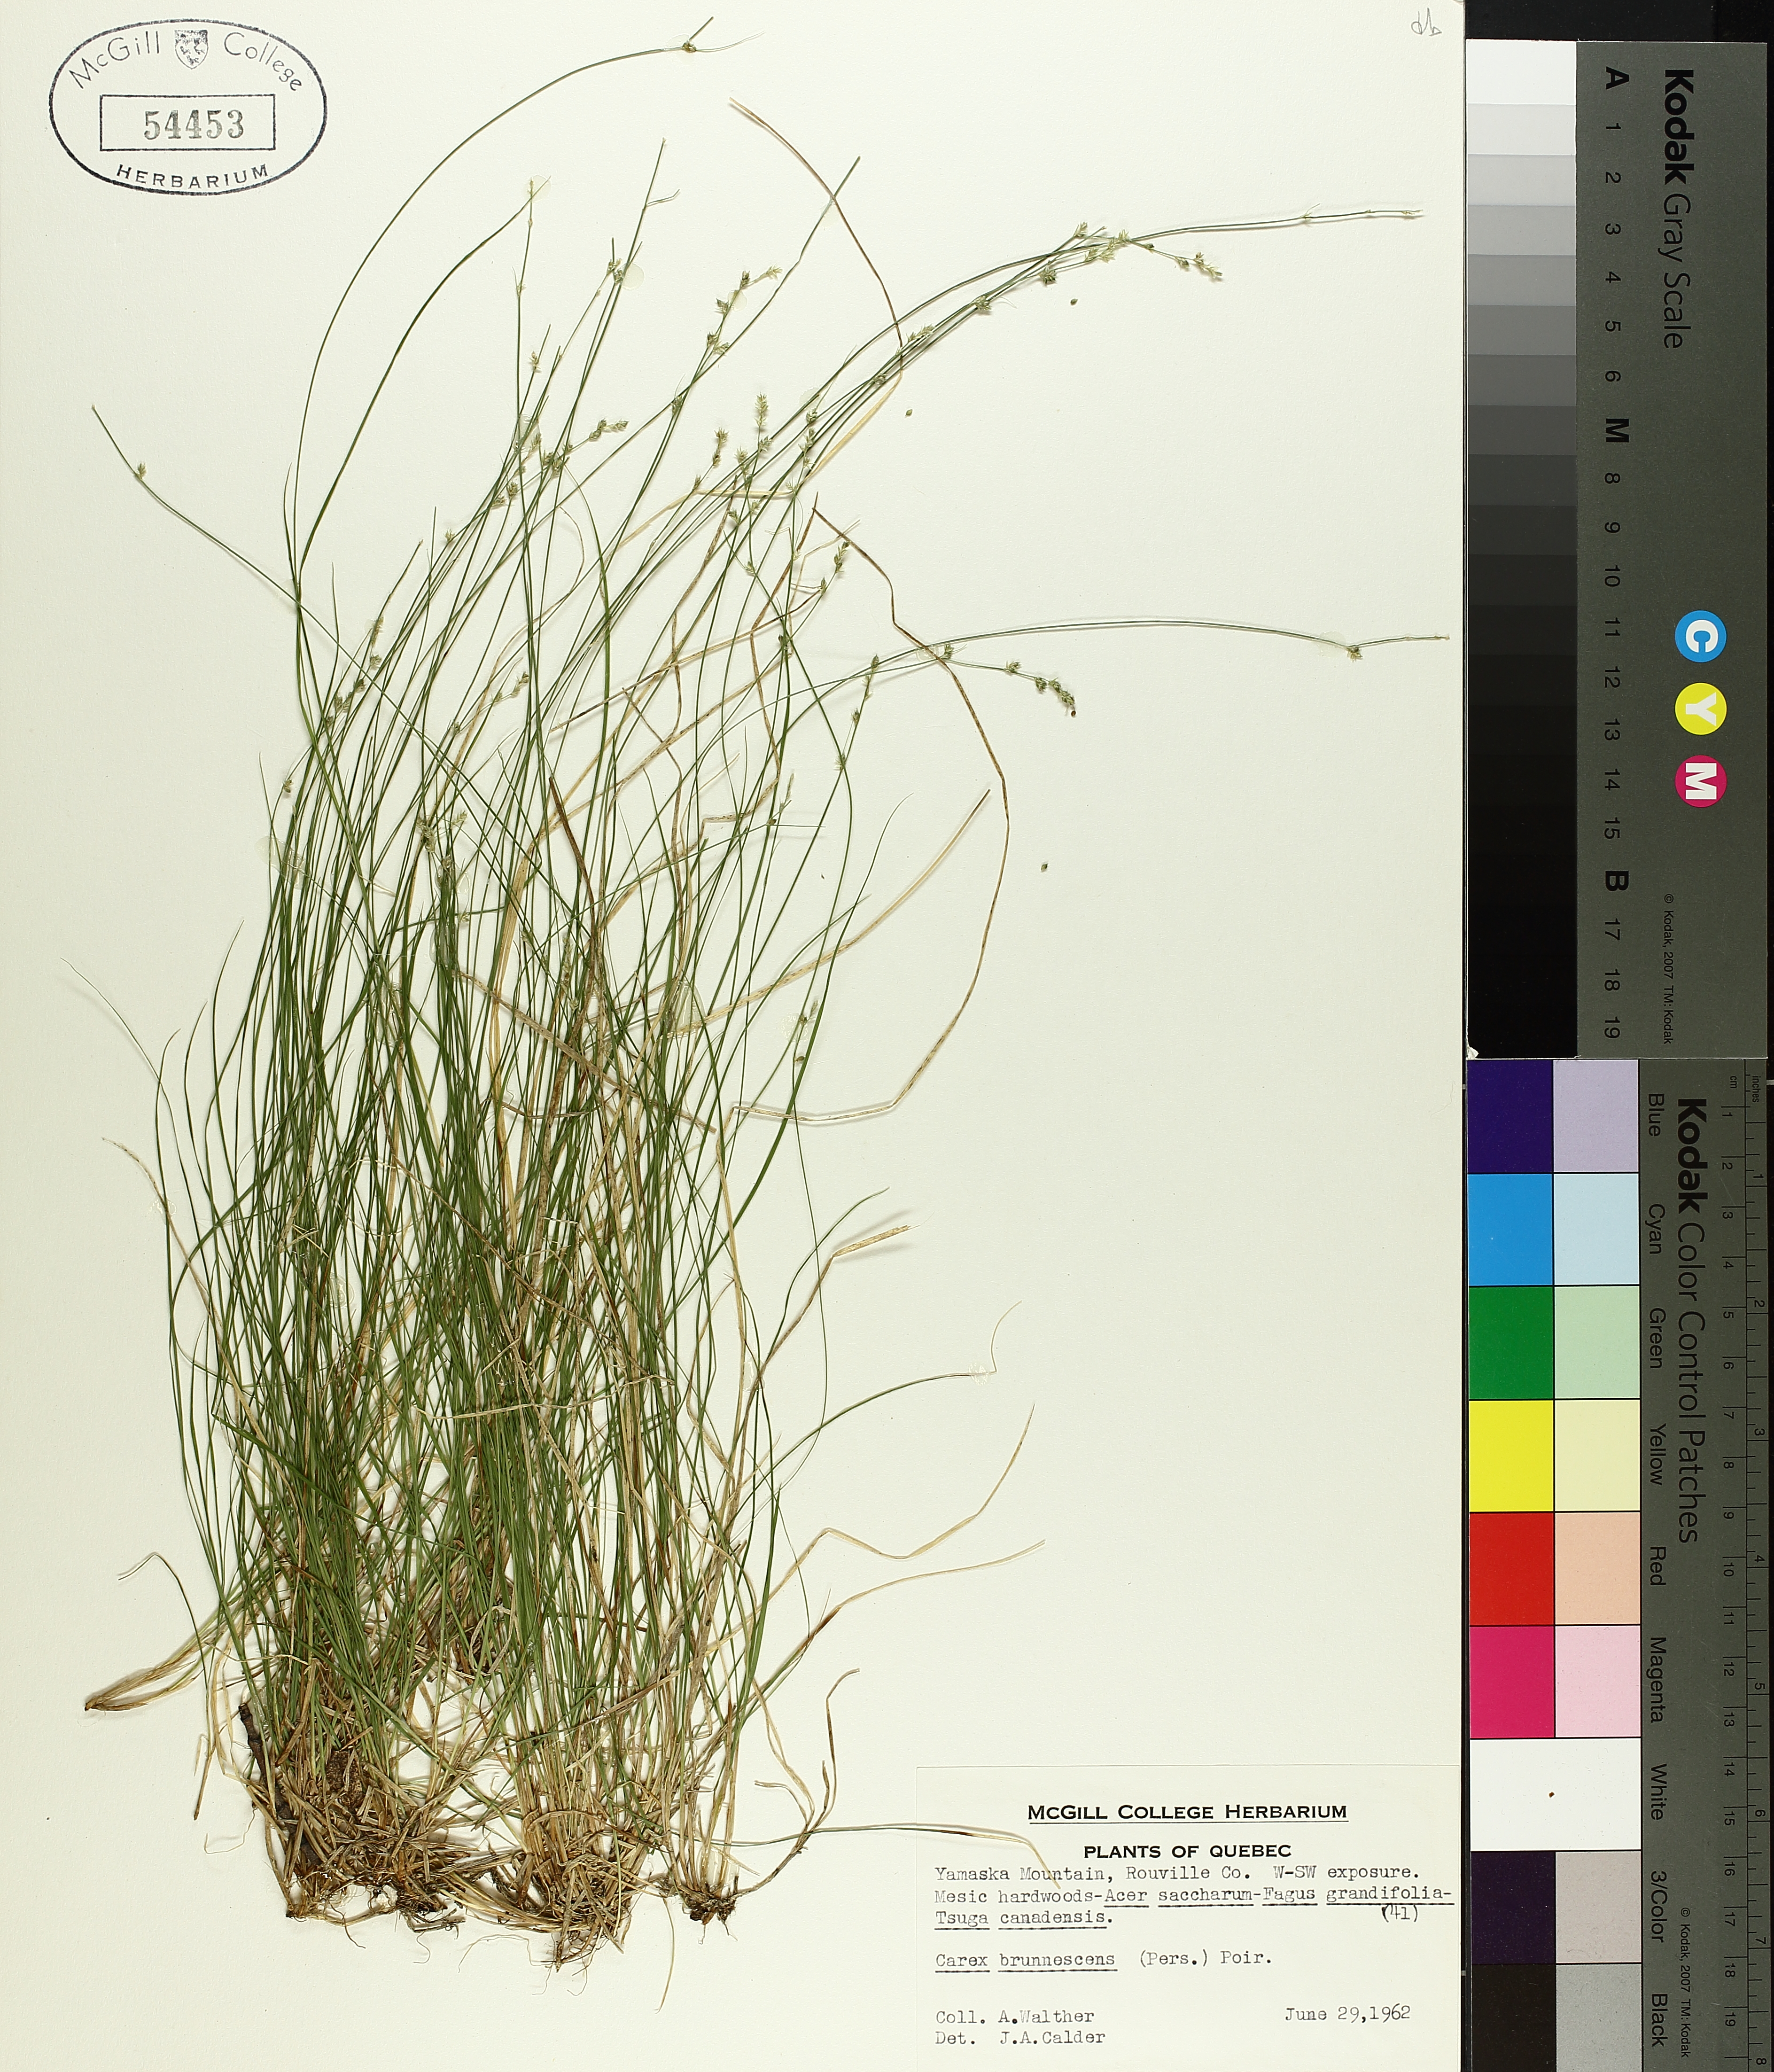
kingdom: Plantae
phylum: Tracheophyta
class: Liliopsida
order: Poales
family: Cyperaceae
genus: Carex
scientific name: Carex brunnescens
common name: Brown sedge
